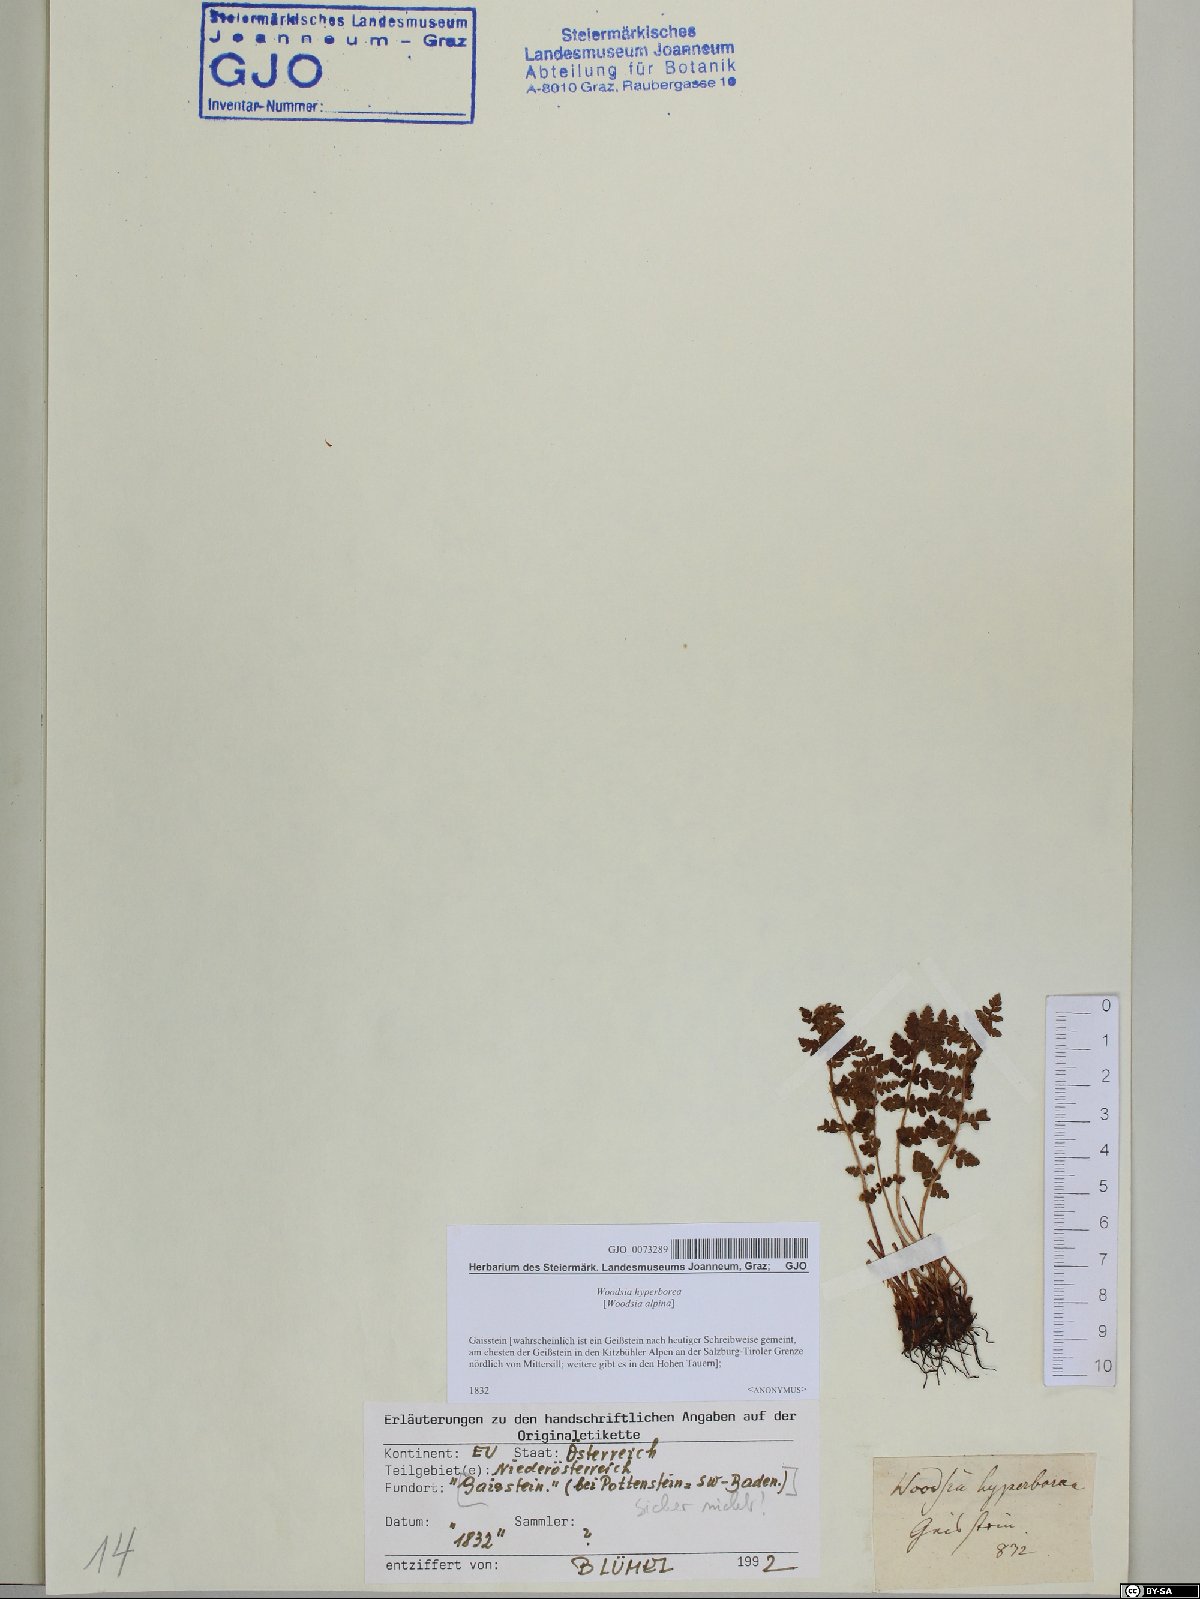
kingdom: Plantae
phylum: Tracheophyta
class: Polypodiopsida
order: Polypodiales
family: Woodsiaceae
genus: Woodsia
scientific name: Woodsia alpina
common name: Alpine woodsia
